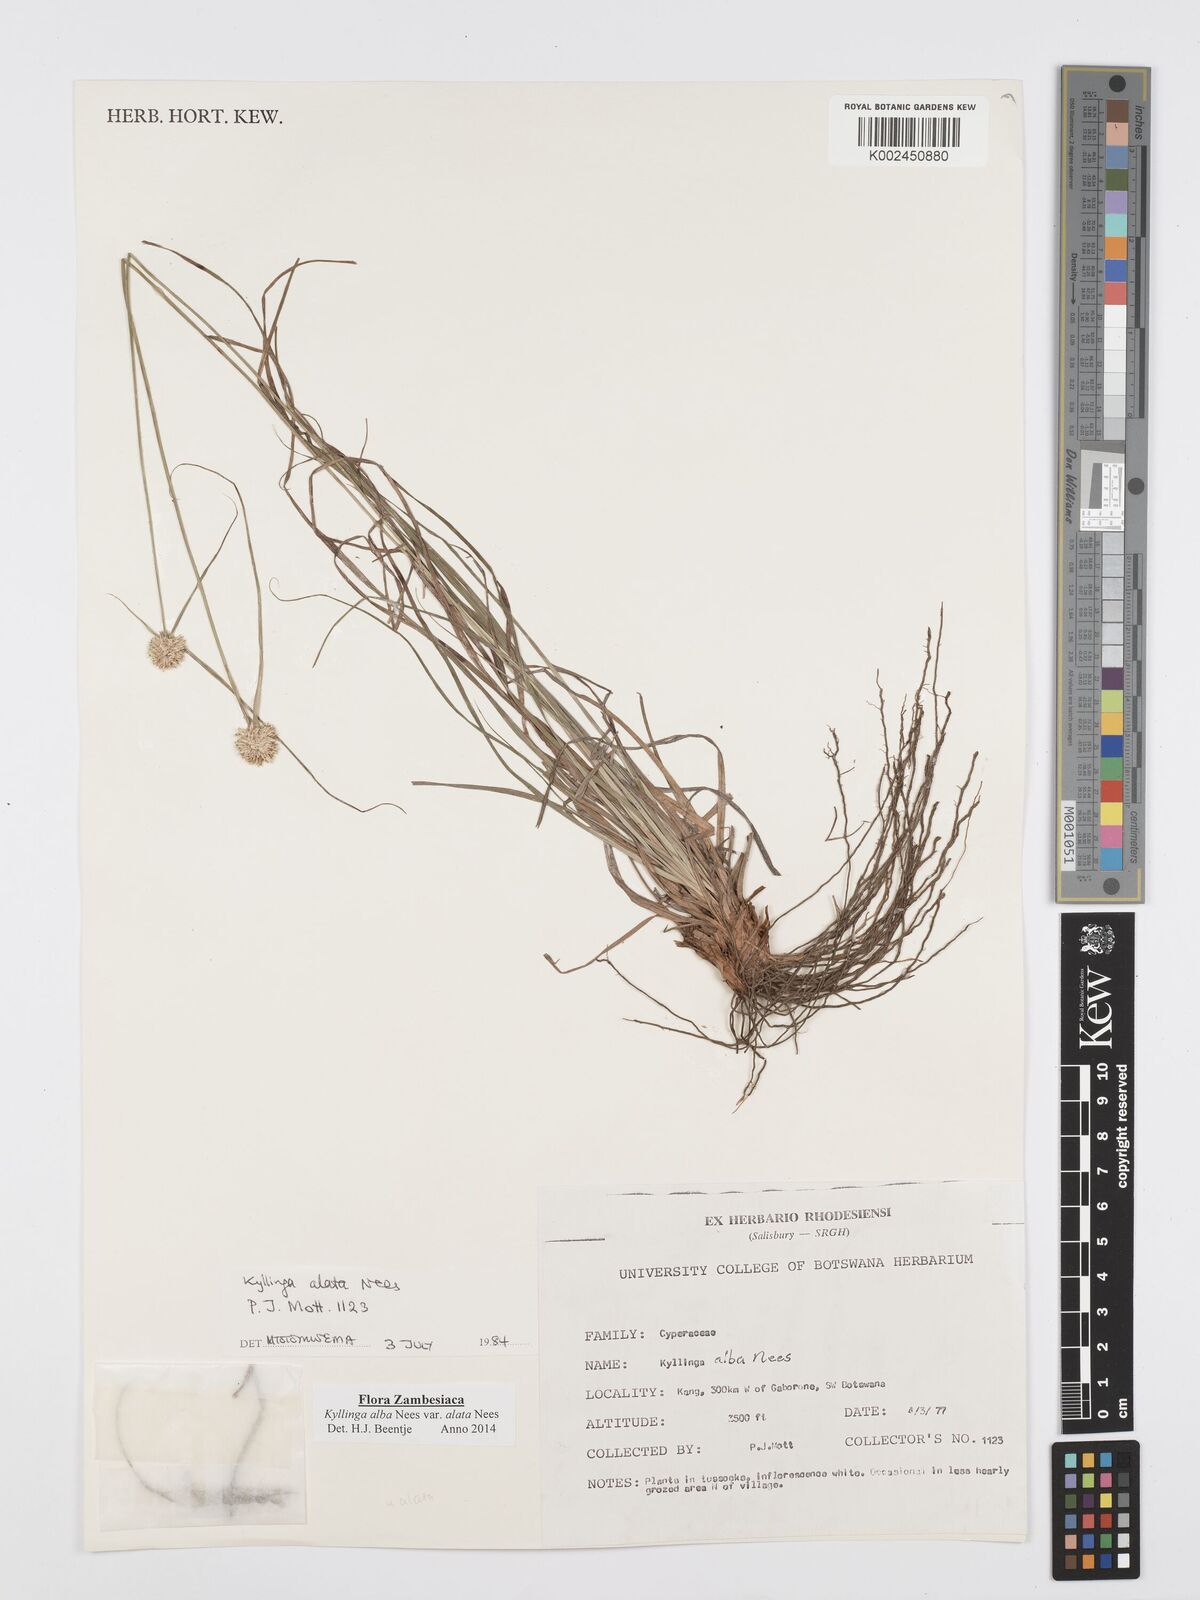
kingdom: Plantae
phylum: Tracheophyta
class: Liliopsida
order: Poales
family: Cyperaceae
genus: Cyperus
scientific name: Cyperus alatus
